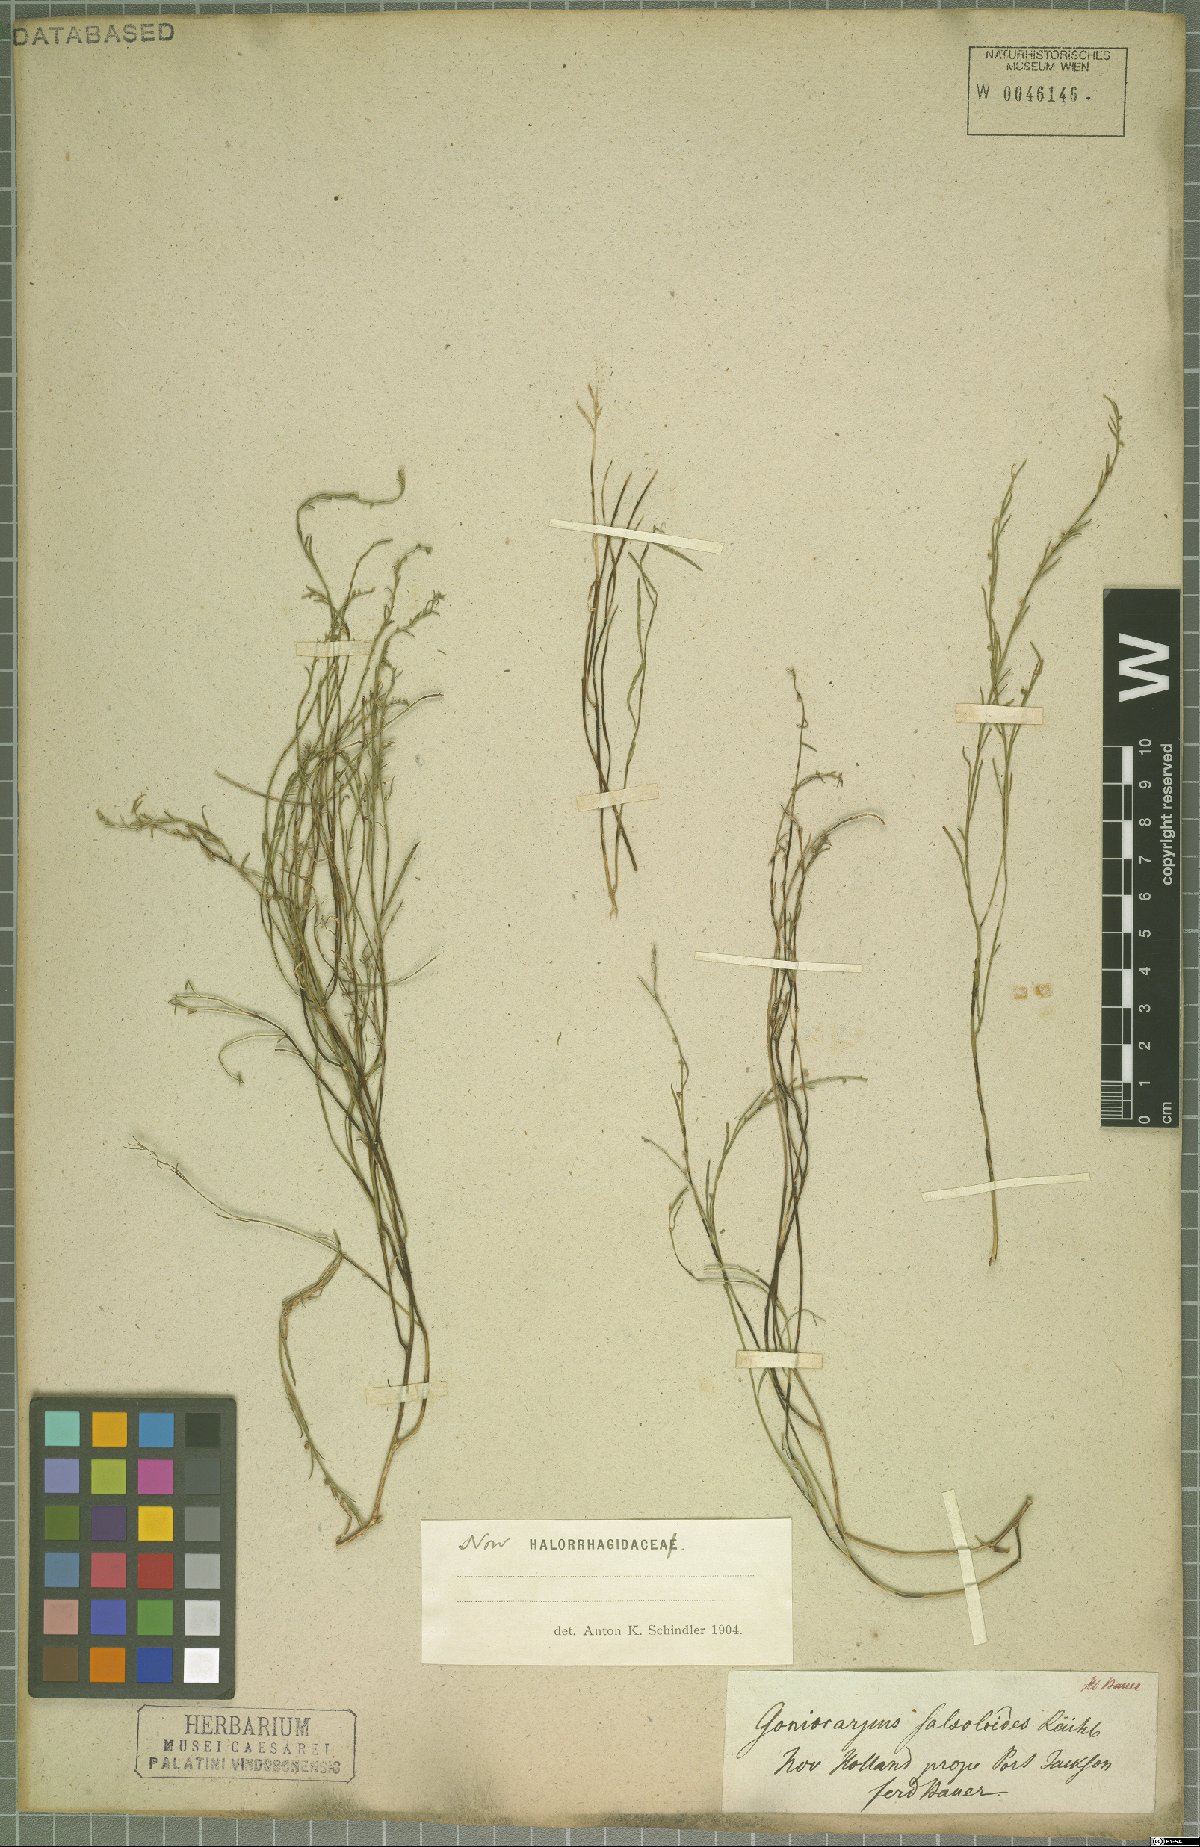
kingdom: Plantae
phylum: Tracheophyta
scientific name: Tracheophyta
